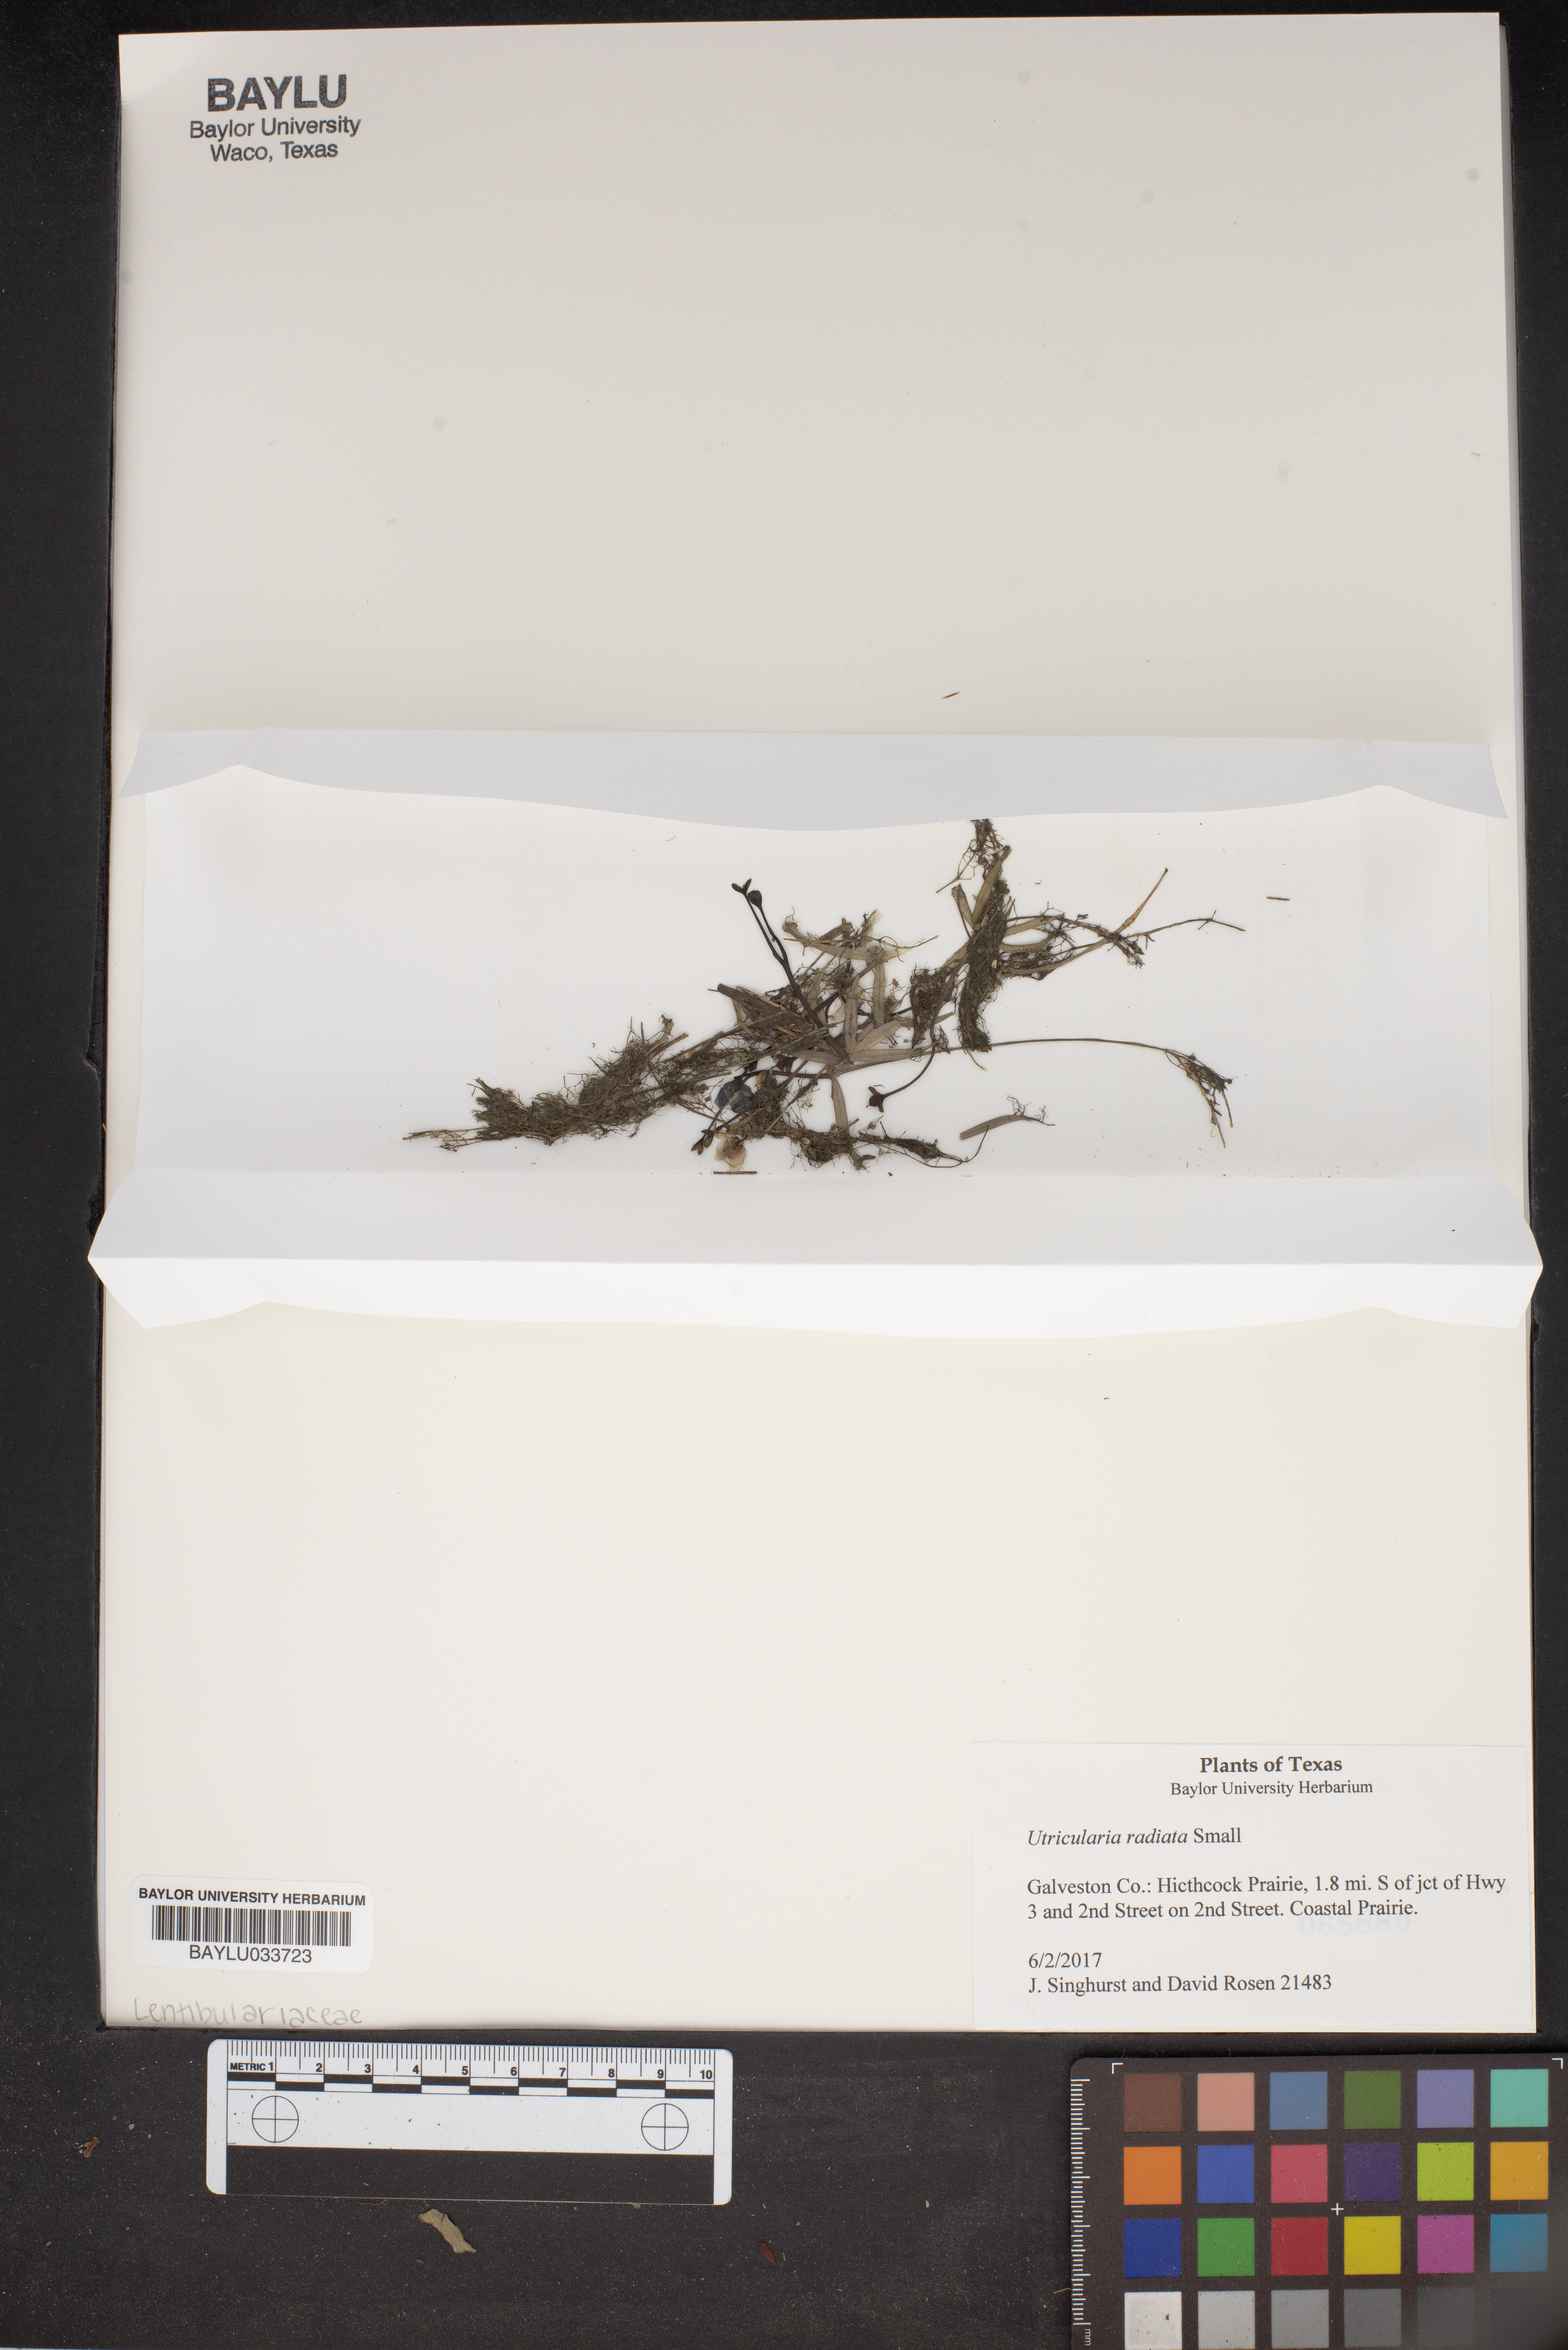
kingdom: Plantae
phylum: Tracheophyta
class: Magnoliopsida
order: Lamiales
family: Lentibulariaceae
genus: Utricularia
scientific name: Utricularia radiata
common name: Floating bladderwort
